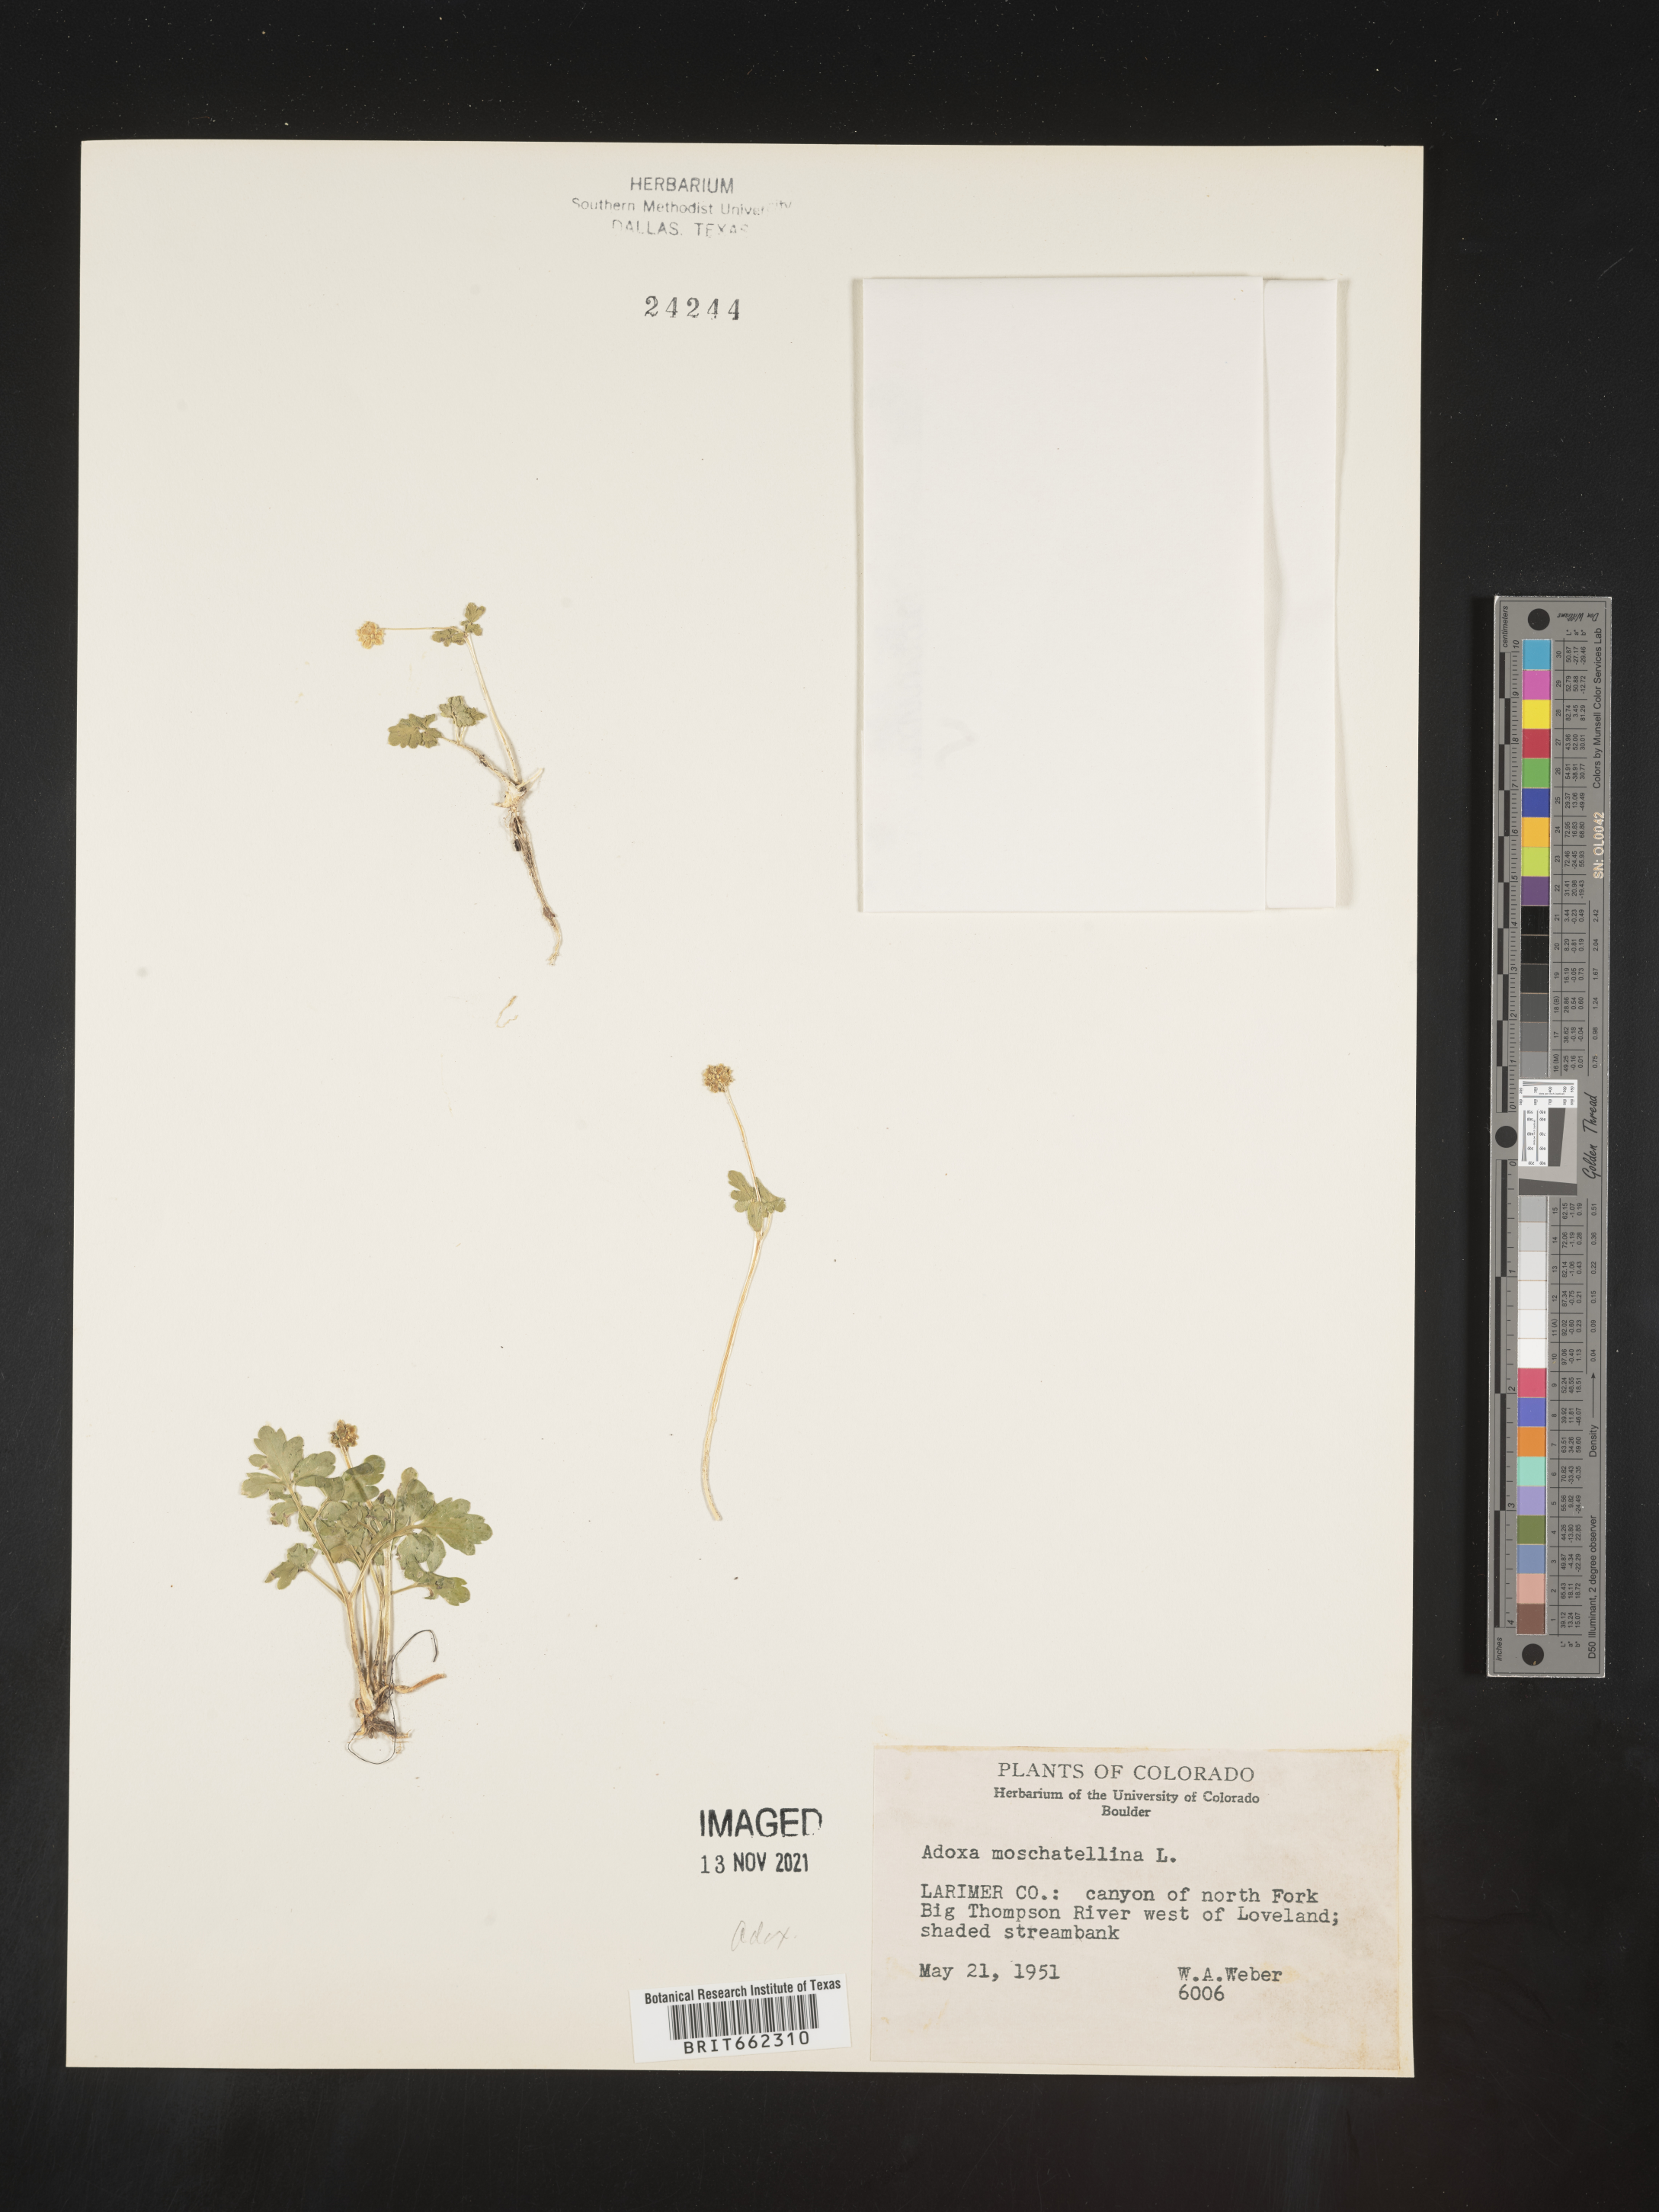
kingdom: Plantae
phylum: Tracheophyta
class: Magnoliopsida
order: Dipsacales
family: Viburnaceae
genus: Adoxa
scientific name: Adoxa
